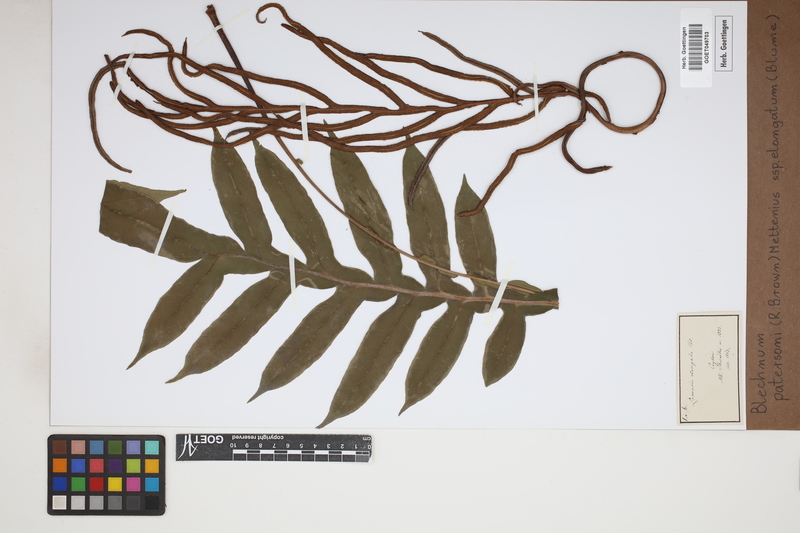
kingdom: Plantae
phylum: Tracheophyta
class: Polypodiopsida
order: Polypodiales
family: Blechnaceae
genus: Austroblechnum
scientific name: Austroblechnum melanocaulon
